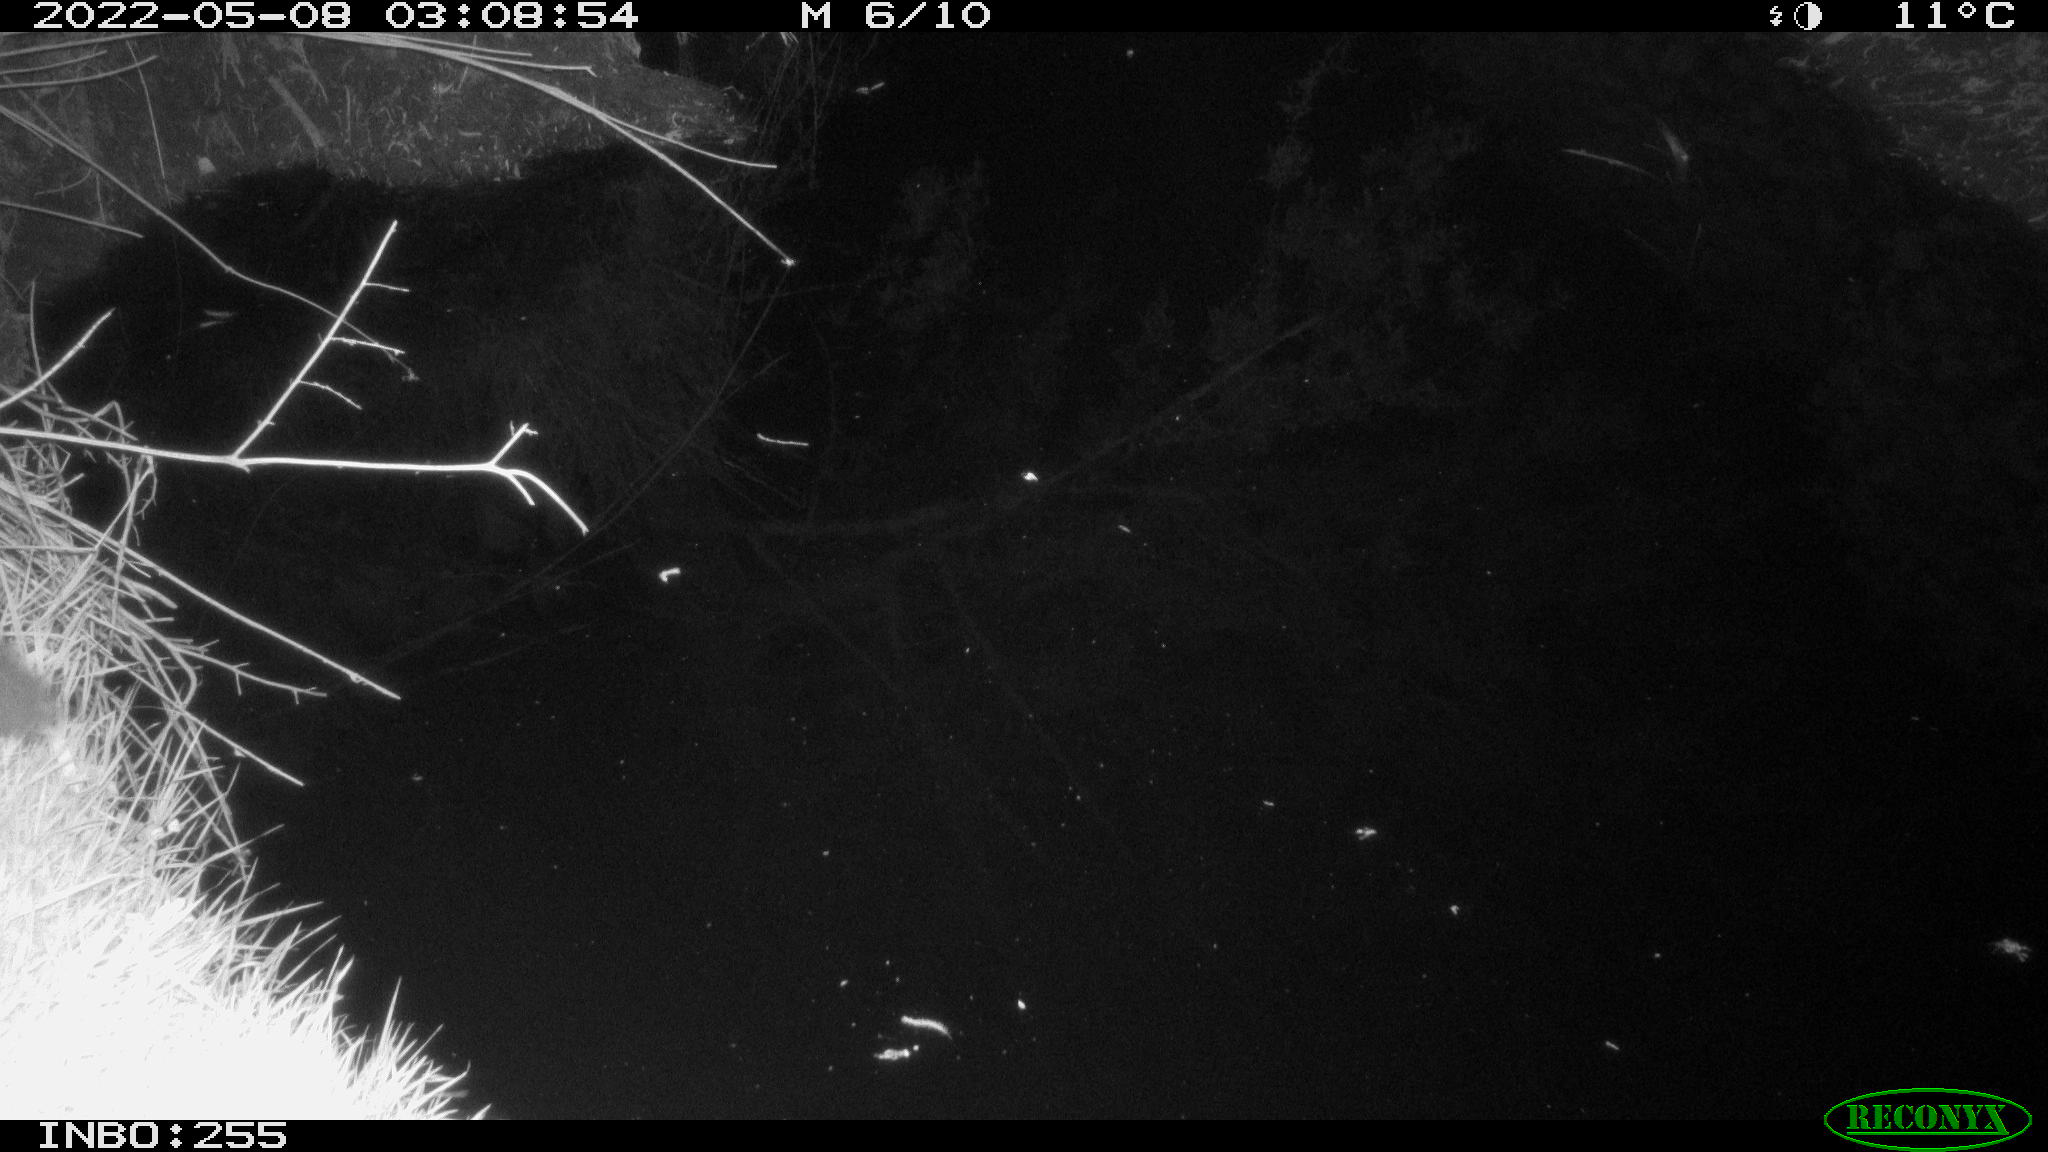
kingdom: Animalia
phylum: Chordata
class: Mammalia
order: Carnivora
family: Mustelidae
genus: Martes
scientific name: Martes foina
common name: Beech marten
